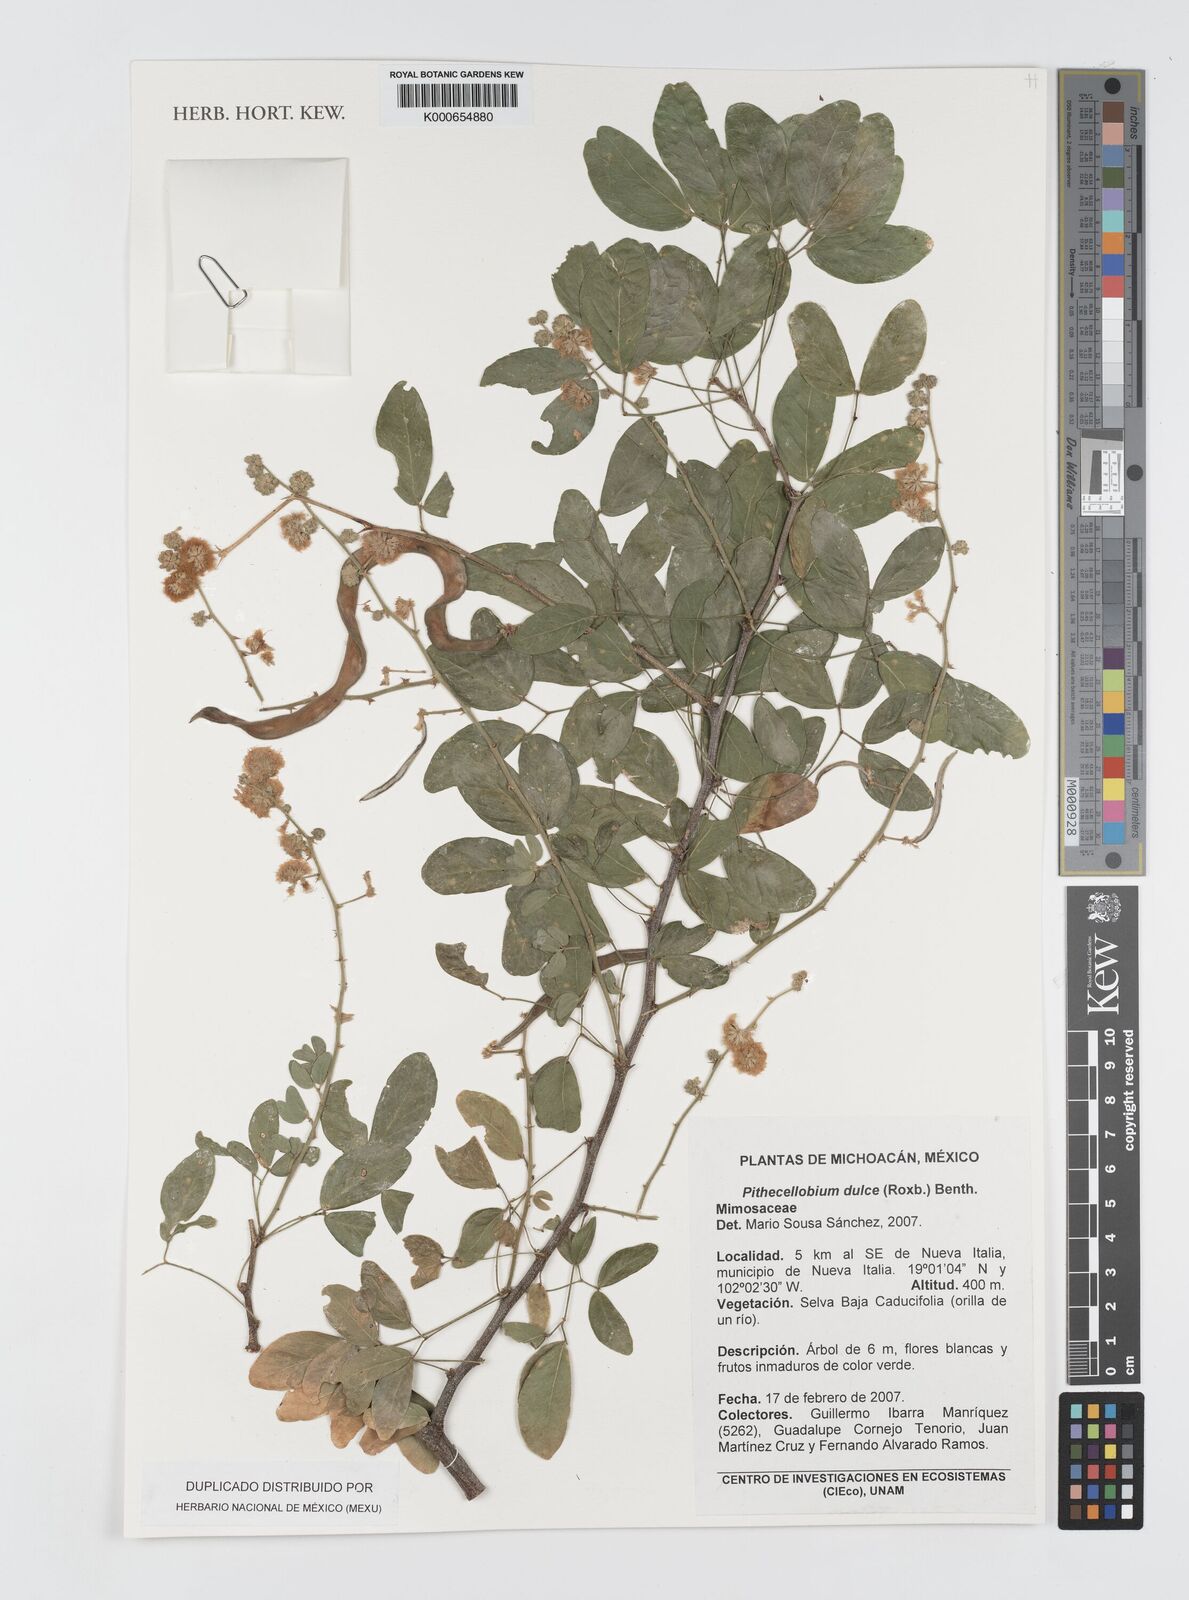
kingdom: Plantae
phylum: Tracheophyta
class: Magnoliopsida
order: Fabales
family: Fabaceae
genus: Pithecellobium
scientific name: Pithecellobium dulce
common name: Monkeypod
